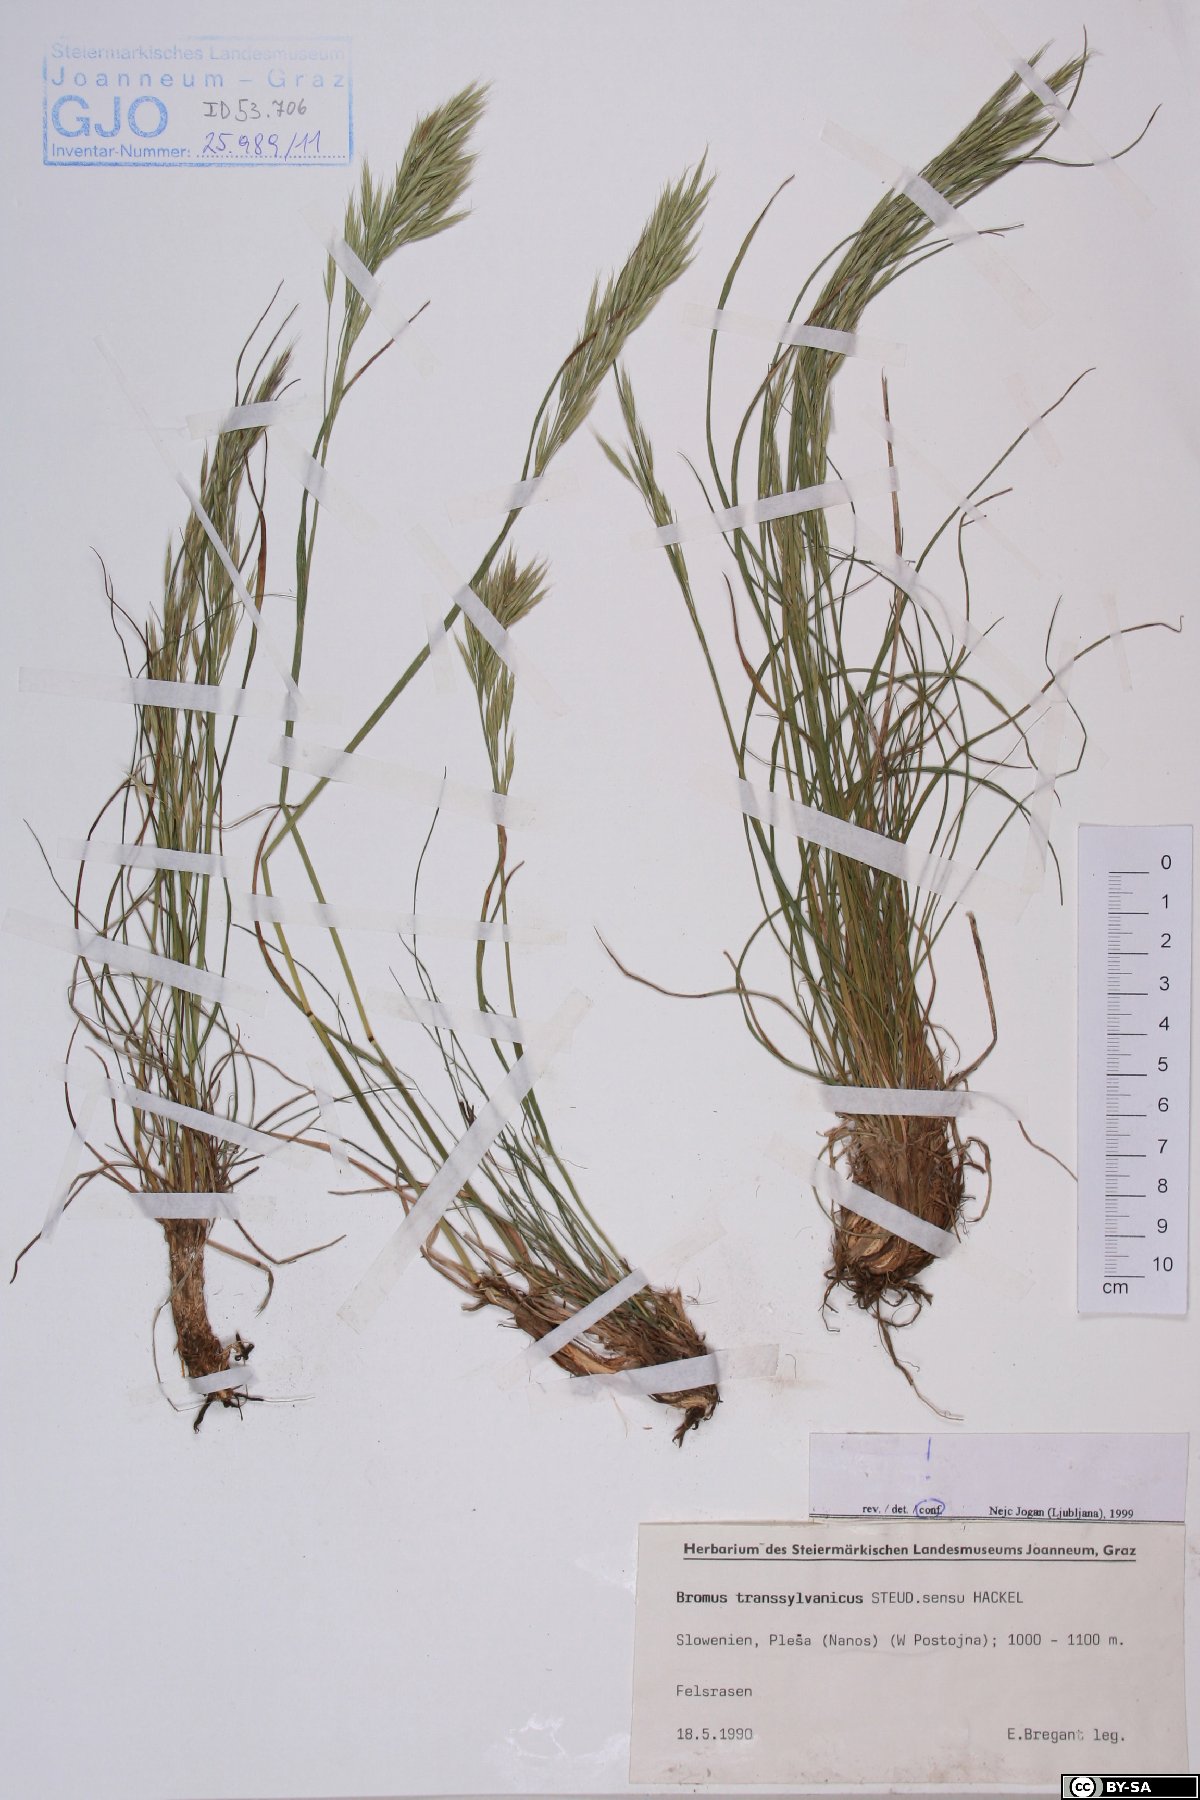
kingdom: Plantae
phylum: Tracheophyta
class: Liliopsida
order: Poales
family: Poaceae
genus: Bromus
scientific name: Bromus erectus
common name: Erect brome
